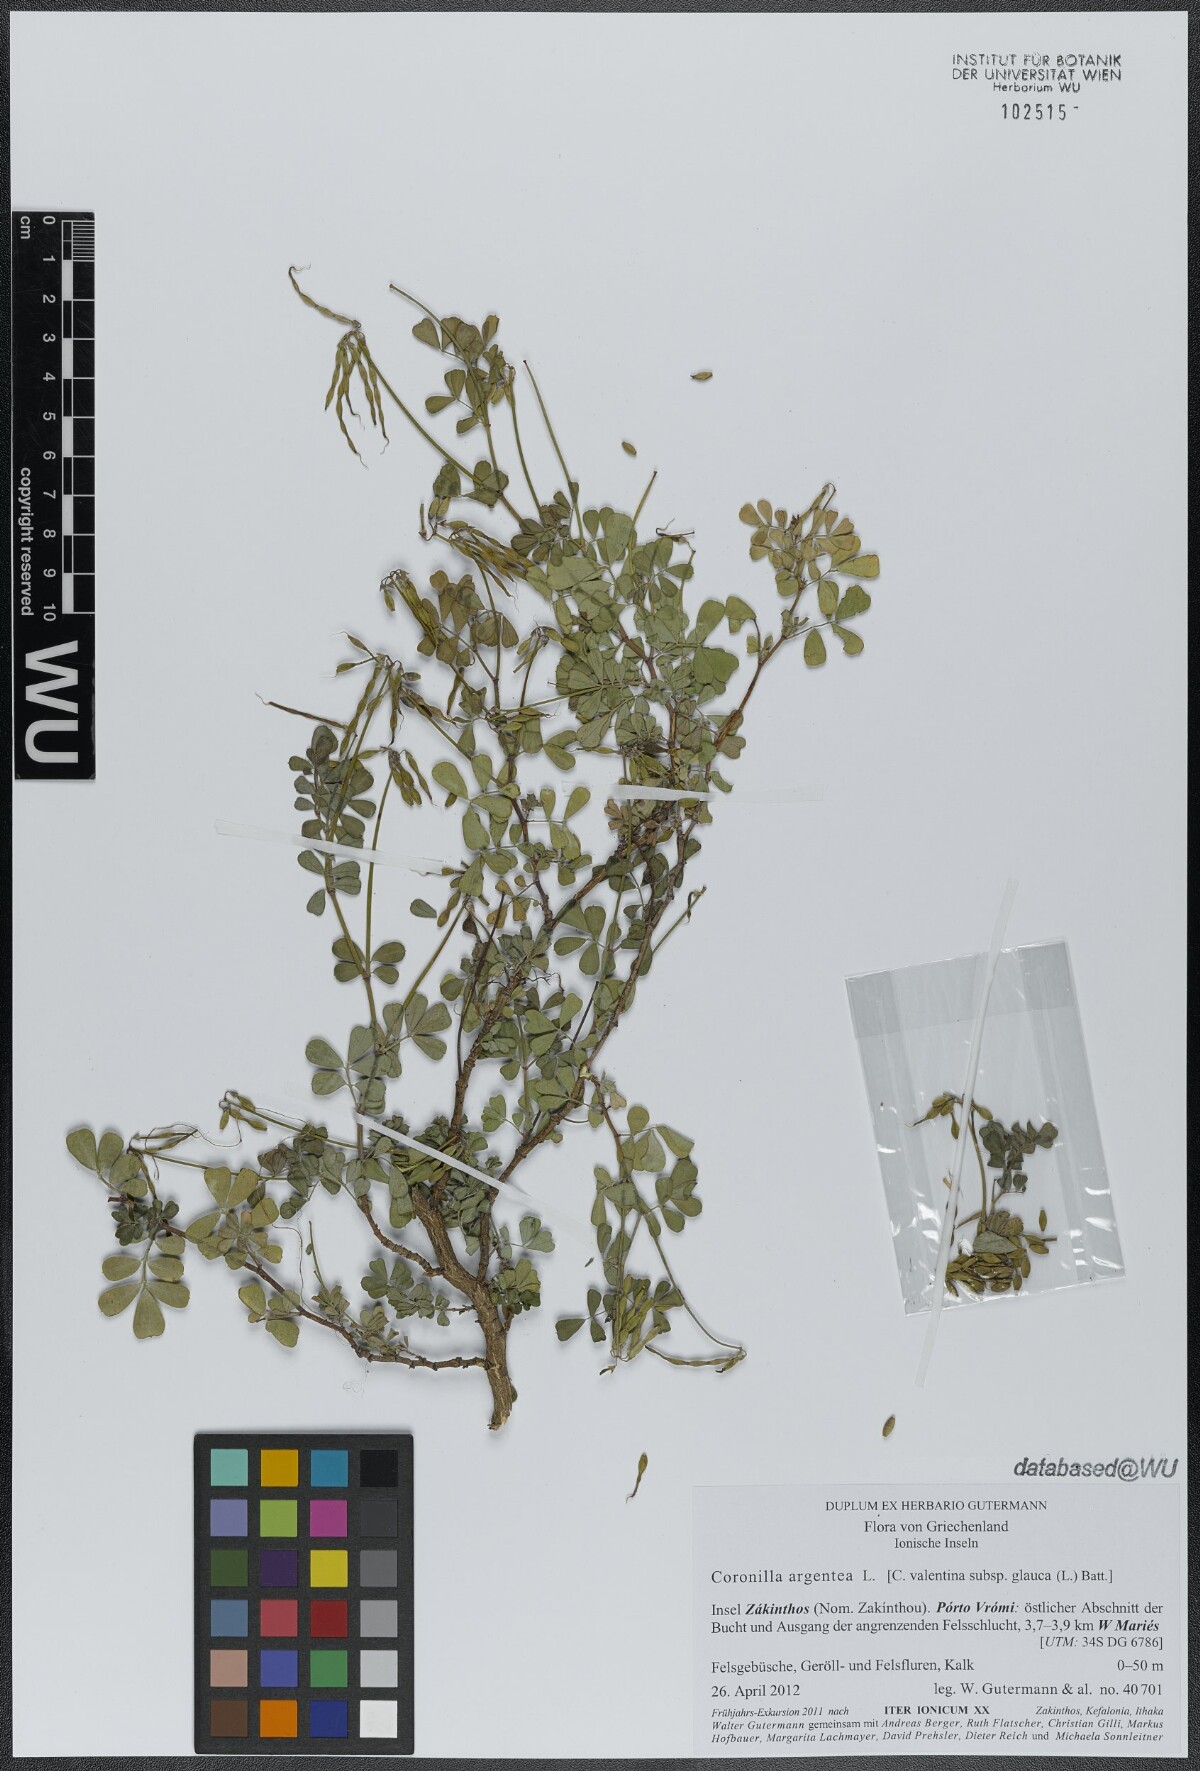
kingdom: Plantae
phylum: Tracheophyta
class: Magnoliopsida
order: Fabales
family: Fabaceae
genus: Coronilla
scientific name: Coronilla valentina
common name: Shrubby scorpion-vetch
